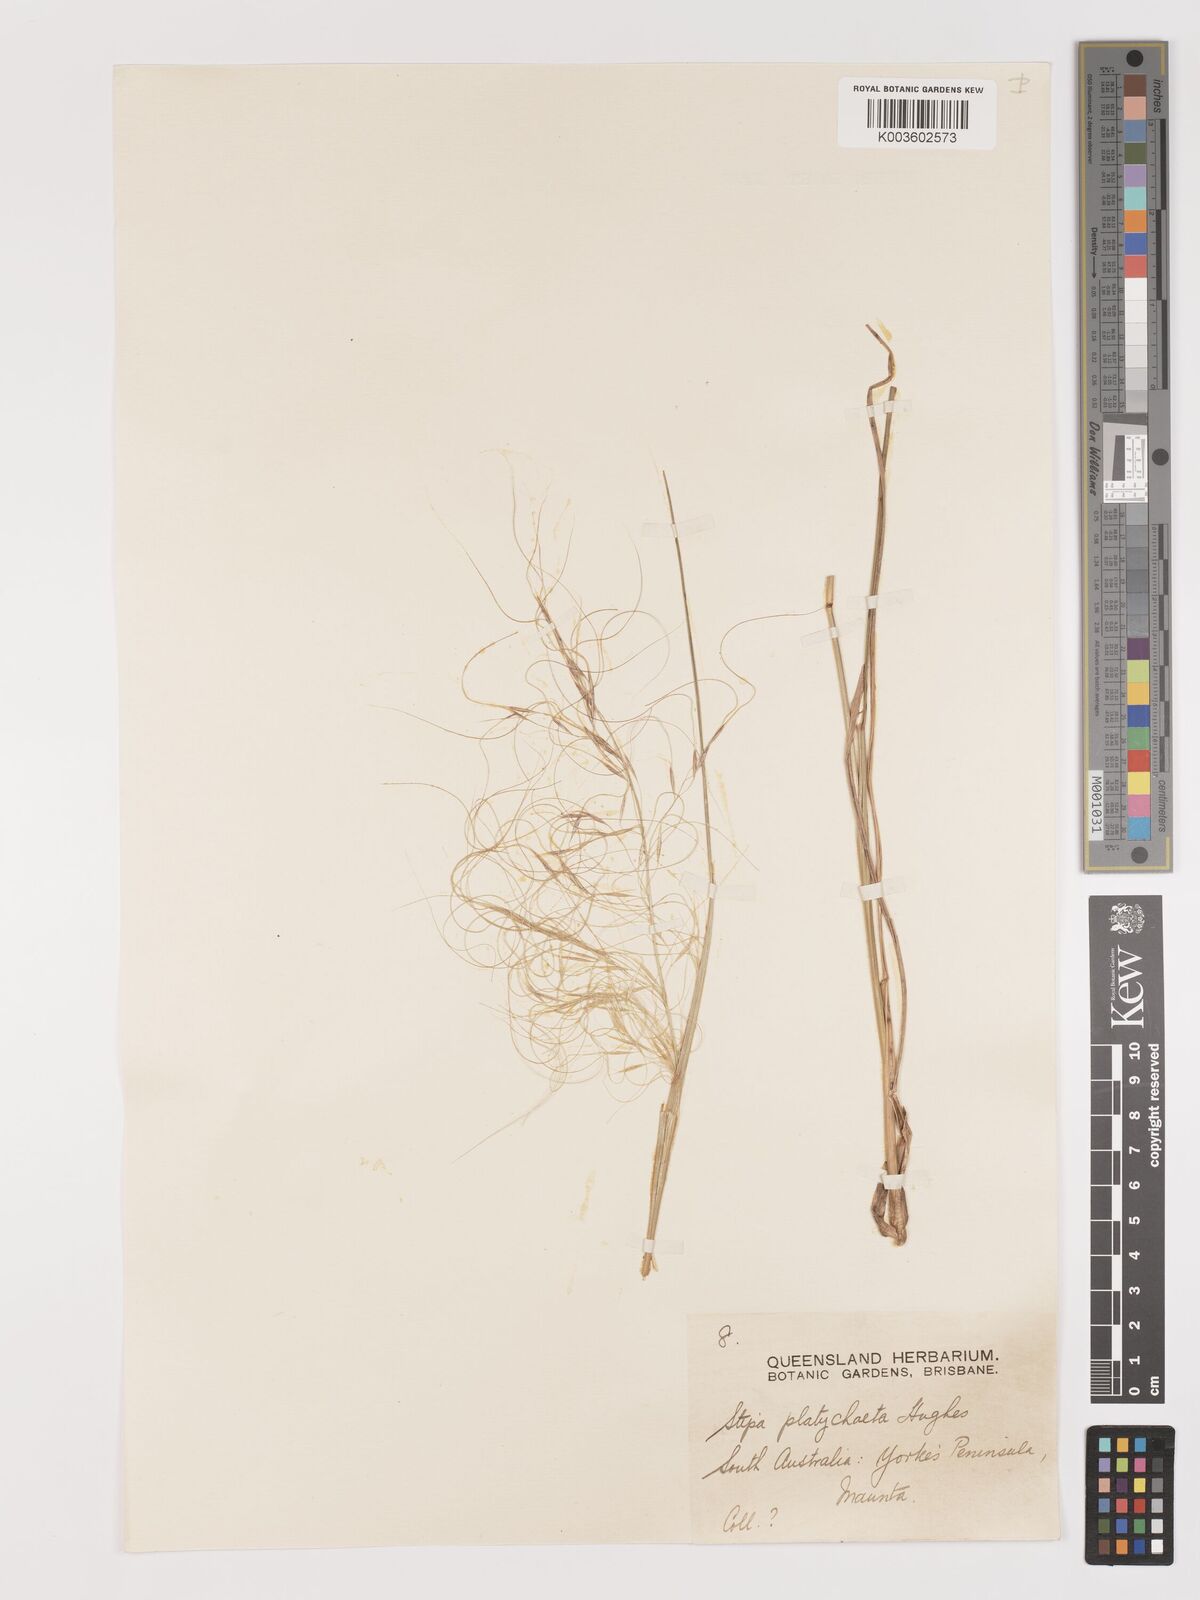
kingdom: Plantae
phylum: Tracheophyta
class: Liliopsida
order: Poales
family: Poaceae
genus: Austrostipa
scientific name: Austrostipa platychaeta
